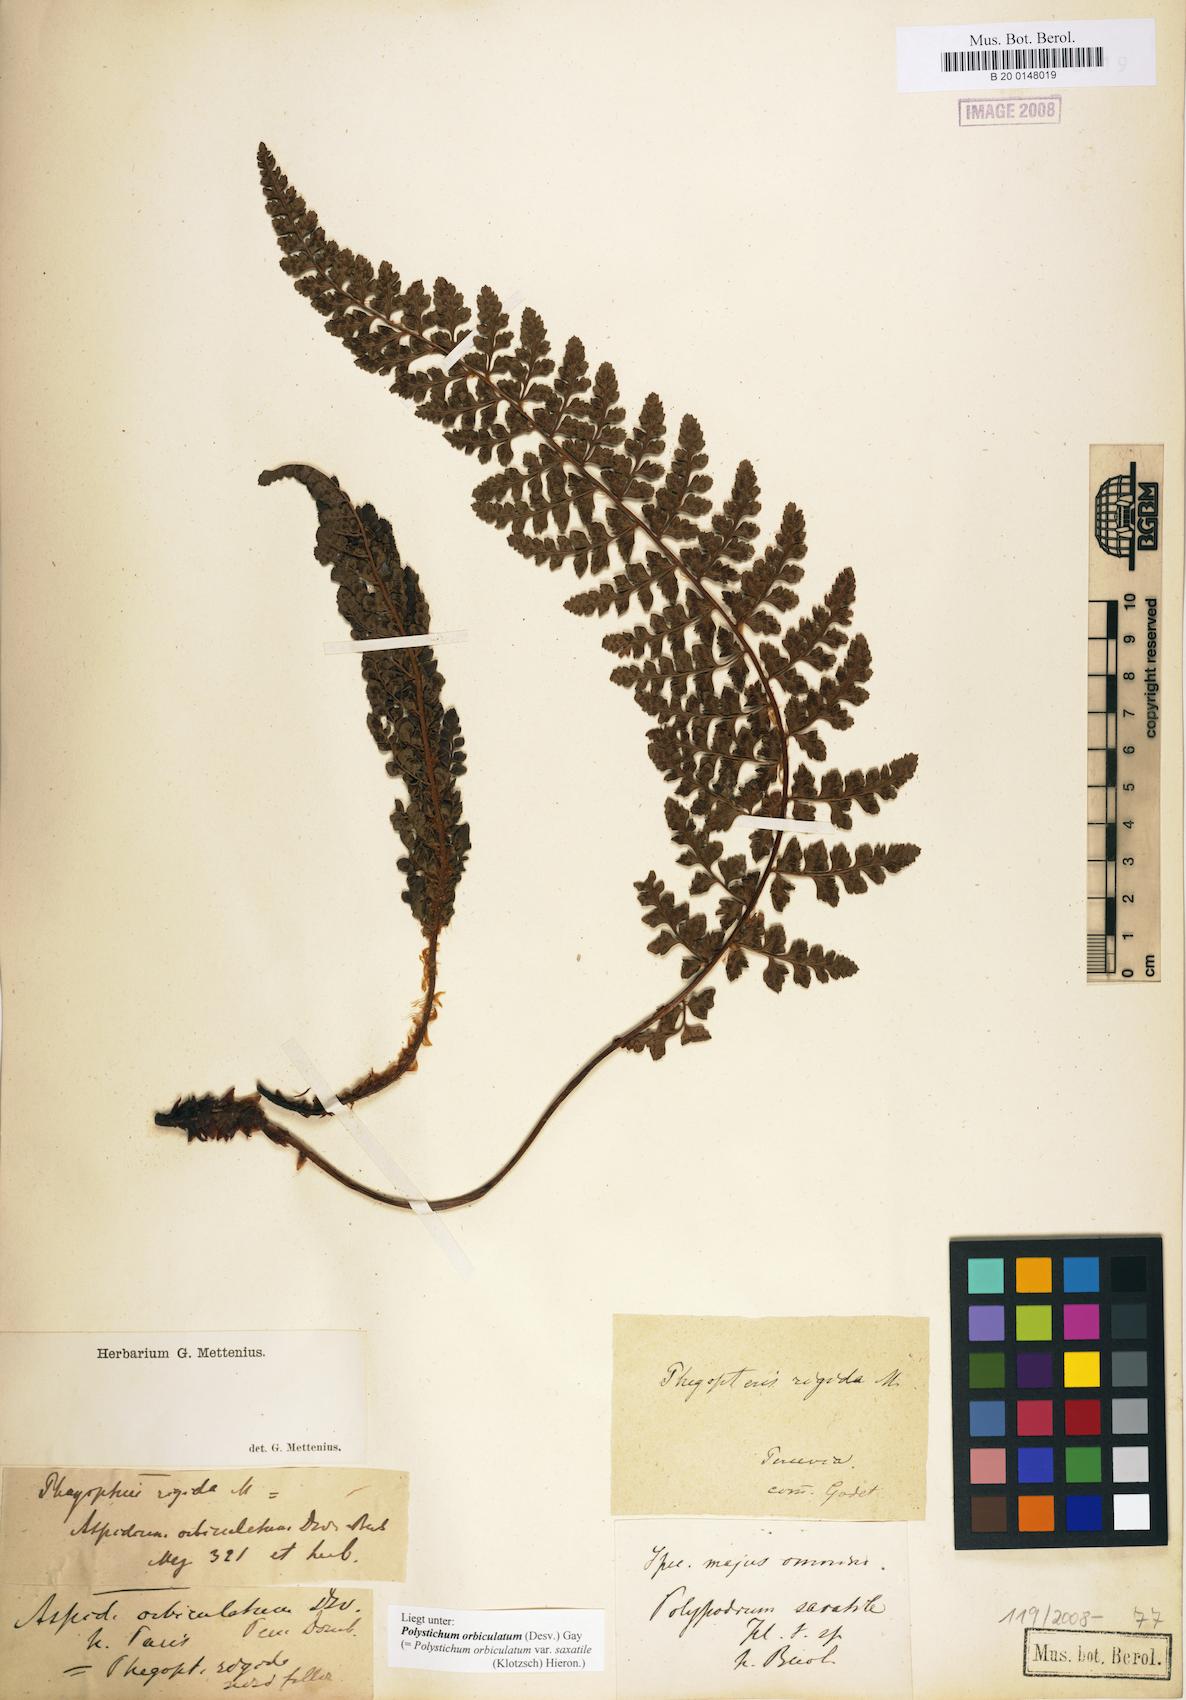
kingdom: Plantae
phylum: Tracheophyta
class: Polypodiopsida
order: Polypodiales
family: Dryopteridaceae
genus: Polystichum
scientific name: Polystichum orbiculatum
